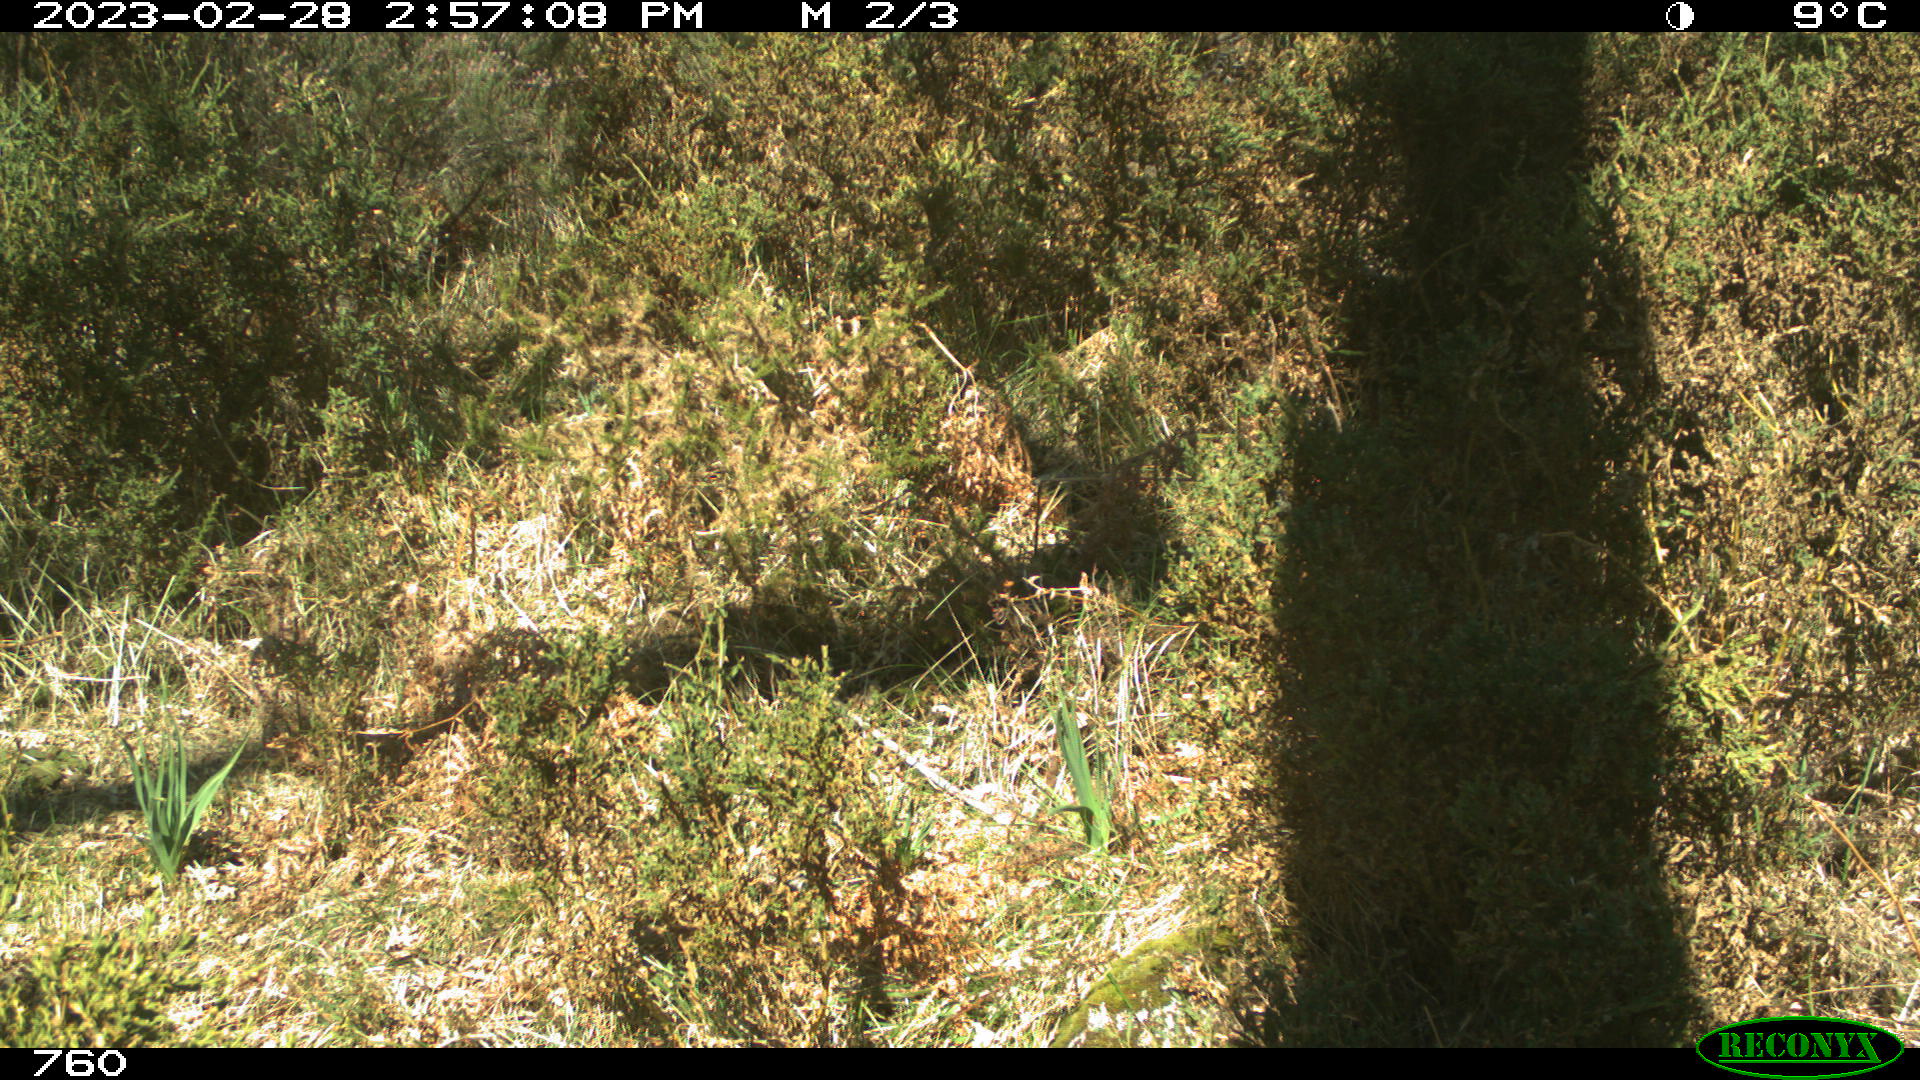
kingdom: Animalia
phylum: Chordata
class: Mammalia
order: Artiodactyla
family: Cervidae
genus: Capreolus
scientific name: Capreolus capreolus
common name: Western roe deer
